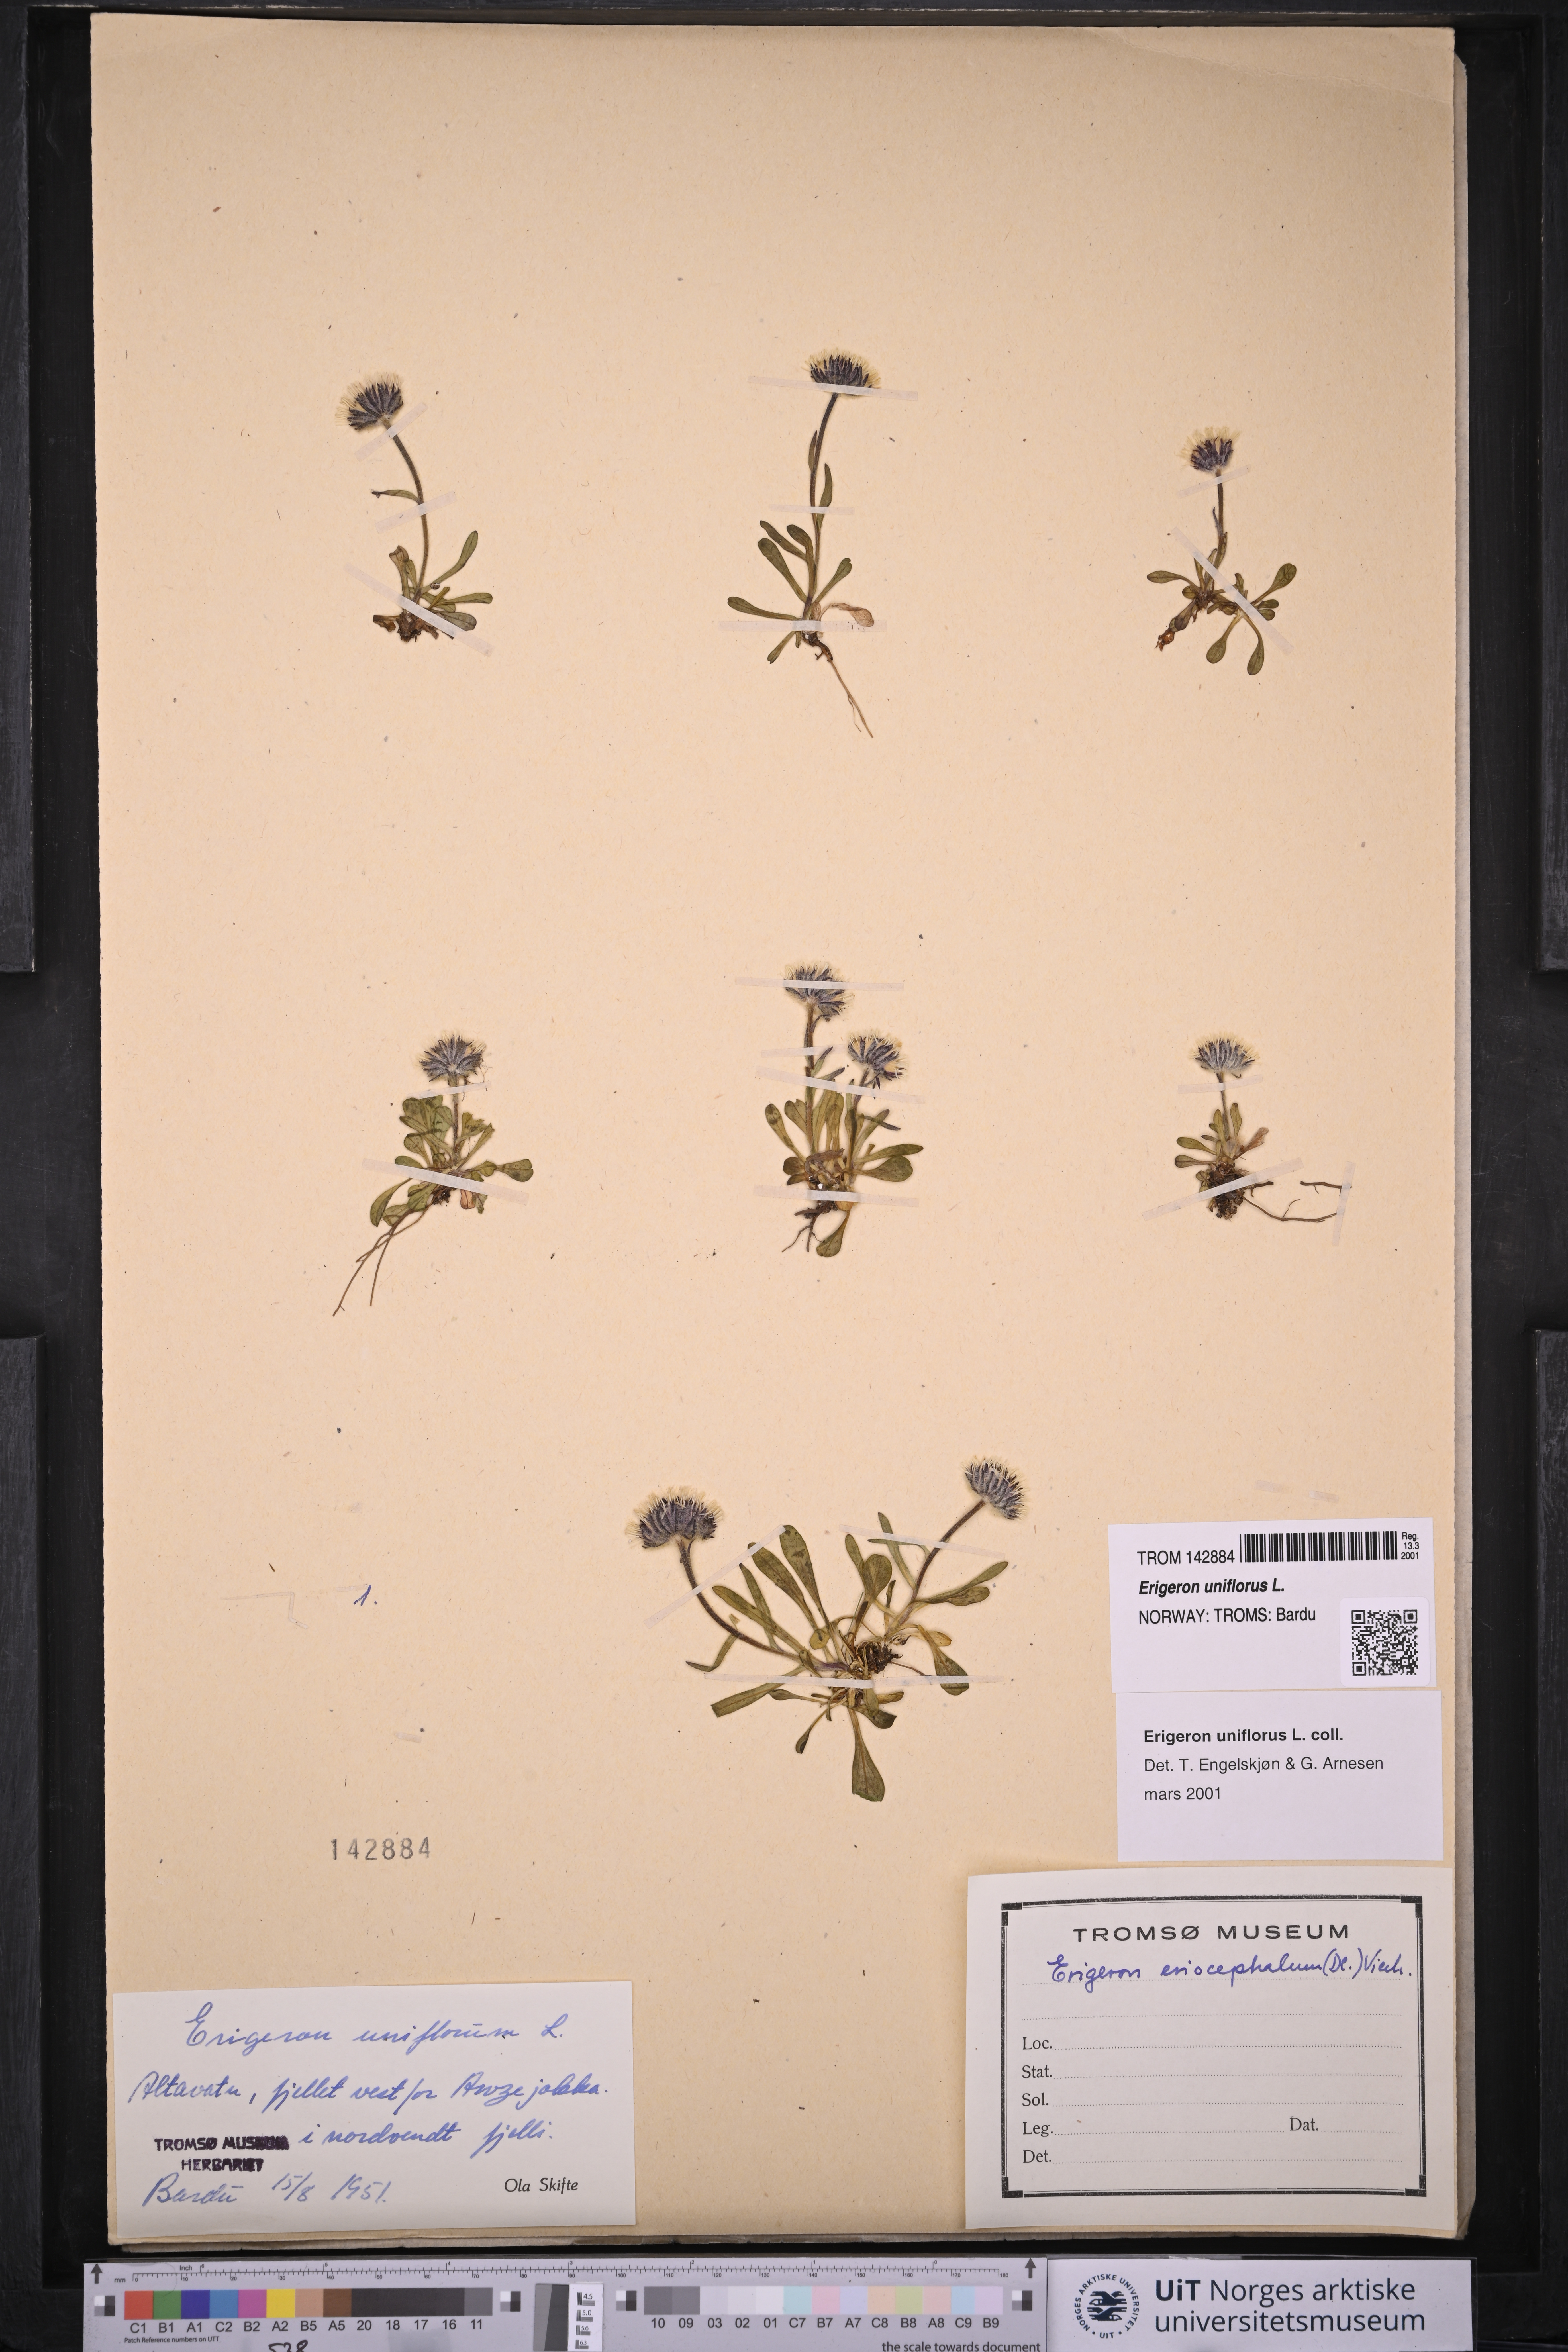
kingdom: Plantae
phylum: Tracheophyta
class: Magnoliopsida
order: Asterales
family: Asteraceae
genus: Erigeron
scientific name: Erigeron uniflorus
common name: Northern daisy
